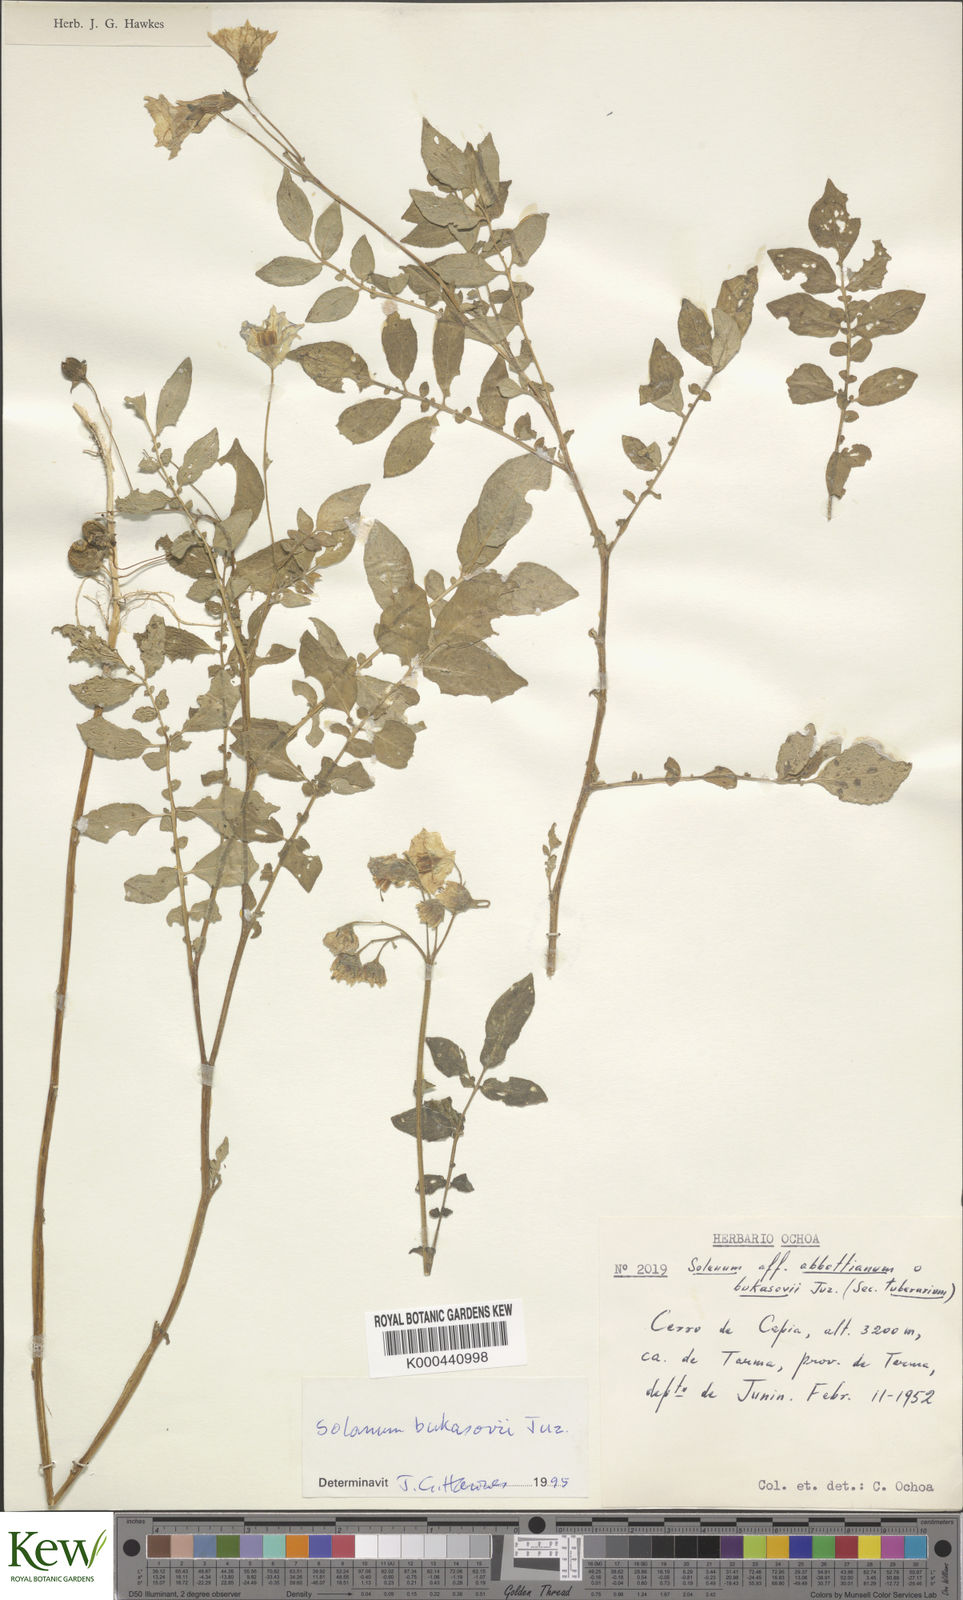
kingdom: Plantae
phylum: Tracheophyta
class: Magnoliopsida
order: Solanales
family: Solanaceae
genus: Solanum
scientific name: Solanum candolleanum
